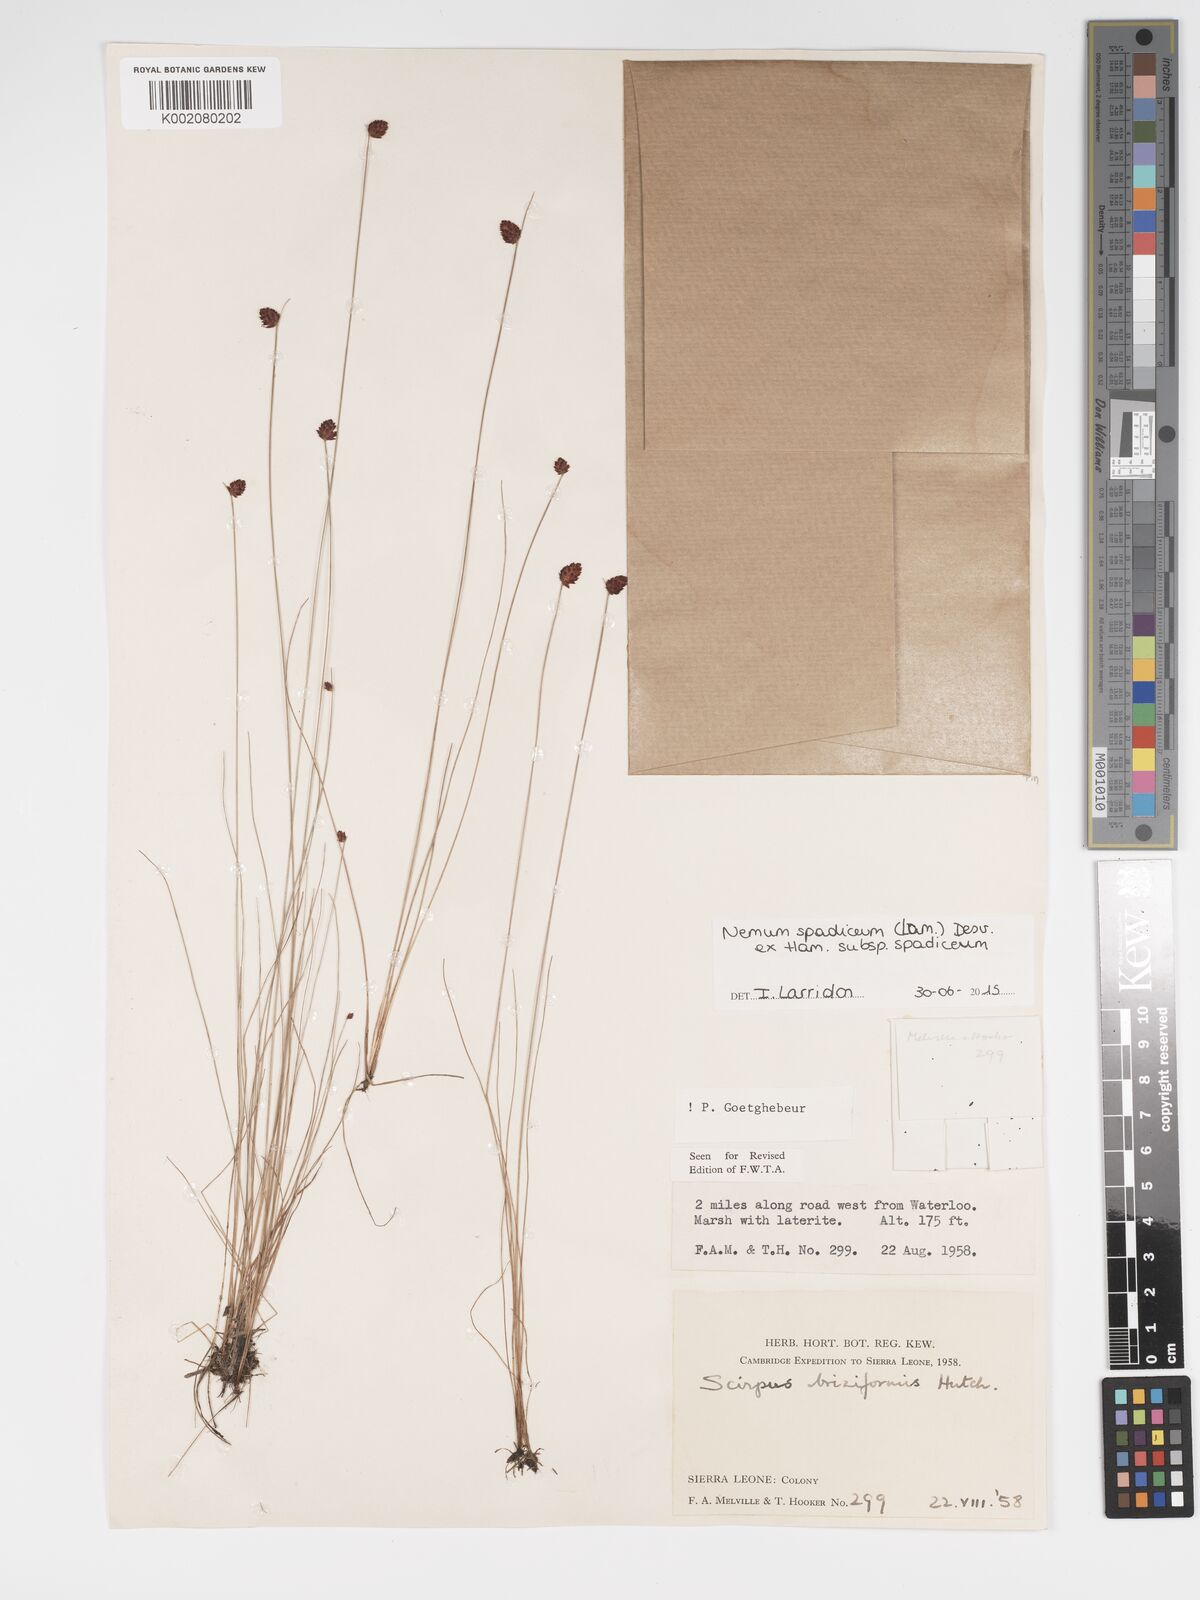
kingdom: Plantae
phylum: Tracheophyta
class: Liliopsida
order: Poales
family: Cyperaceae
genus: Bulbostylis
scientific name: Bulbostylis briziformis
